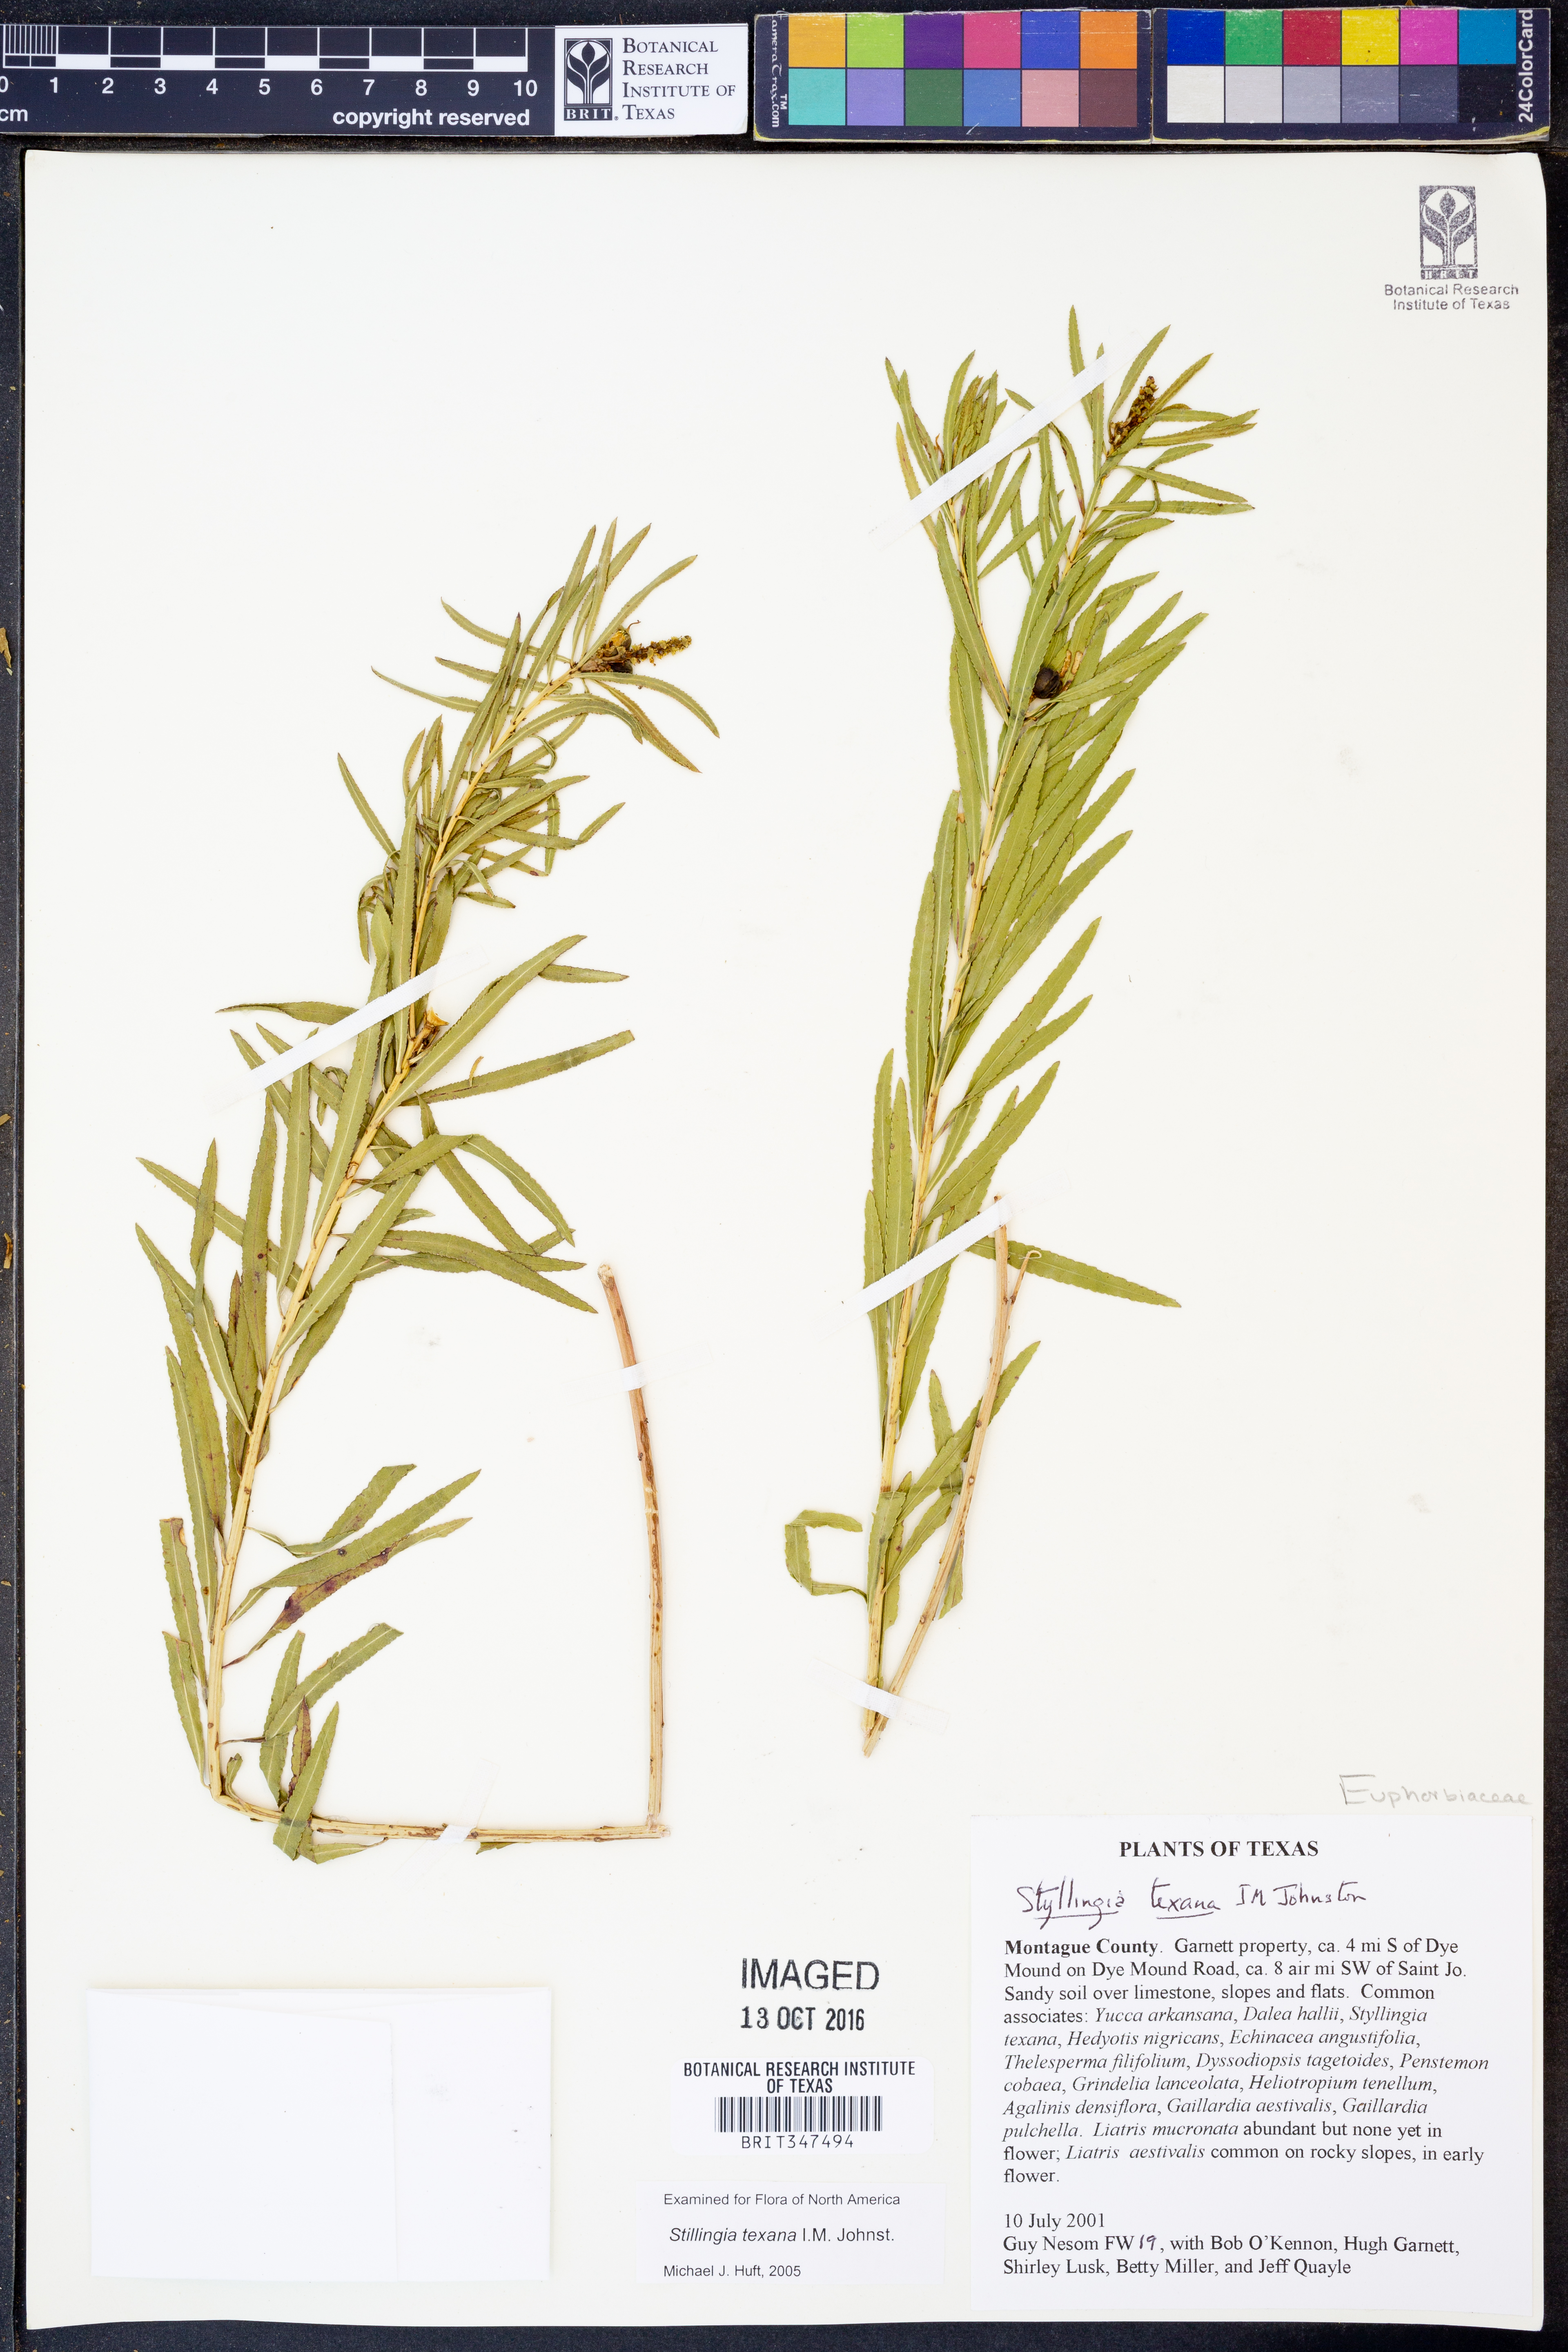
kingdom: Plantae
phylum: Tracheophyta
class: Magnoliopsida
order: Malpighiales
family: Euphorbiaceae
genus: Stillingia
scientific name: Stillingia texana
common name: Texas stillingia
